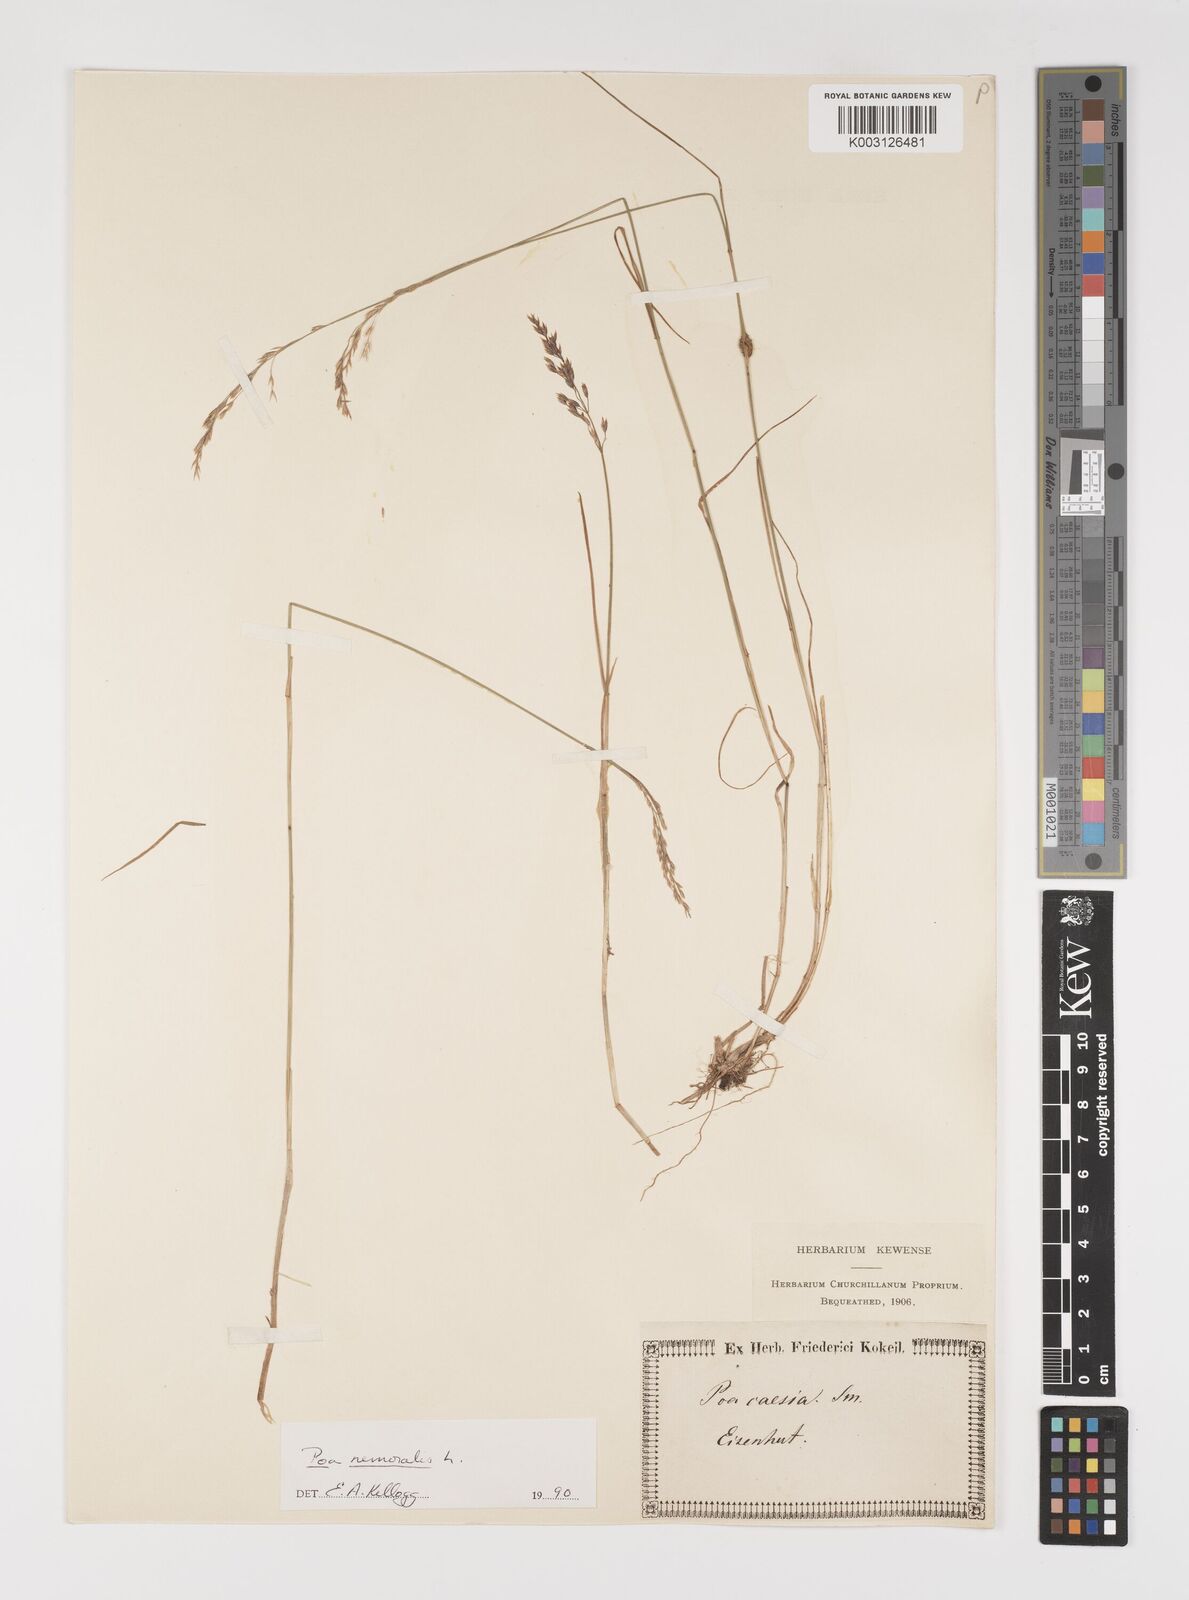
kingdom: Plantae
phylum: Tracheophyta
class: Liliopsida
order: Poales
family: Poaceae
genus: Poa
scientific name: Poa
